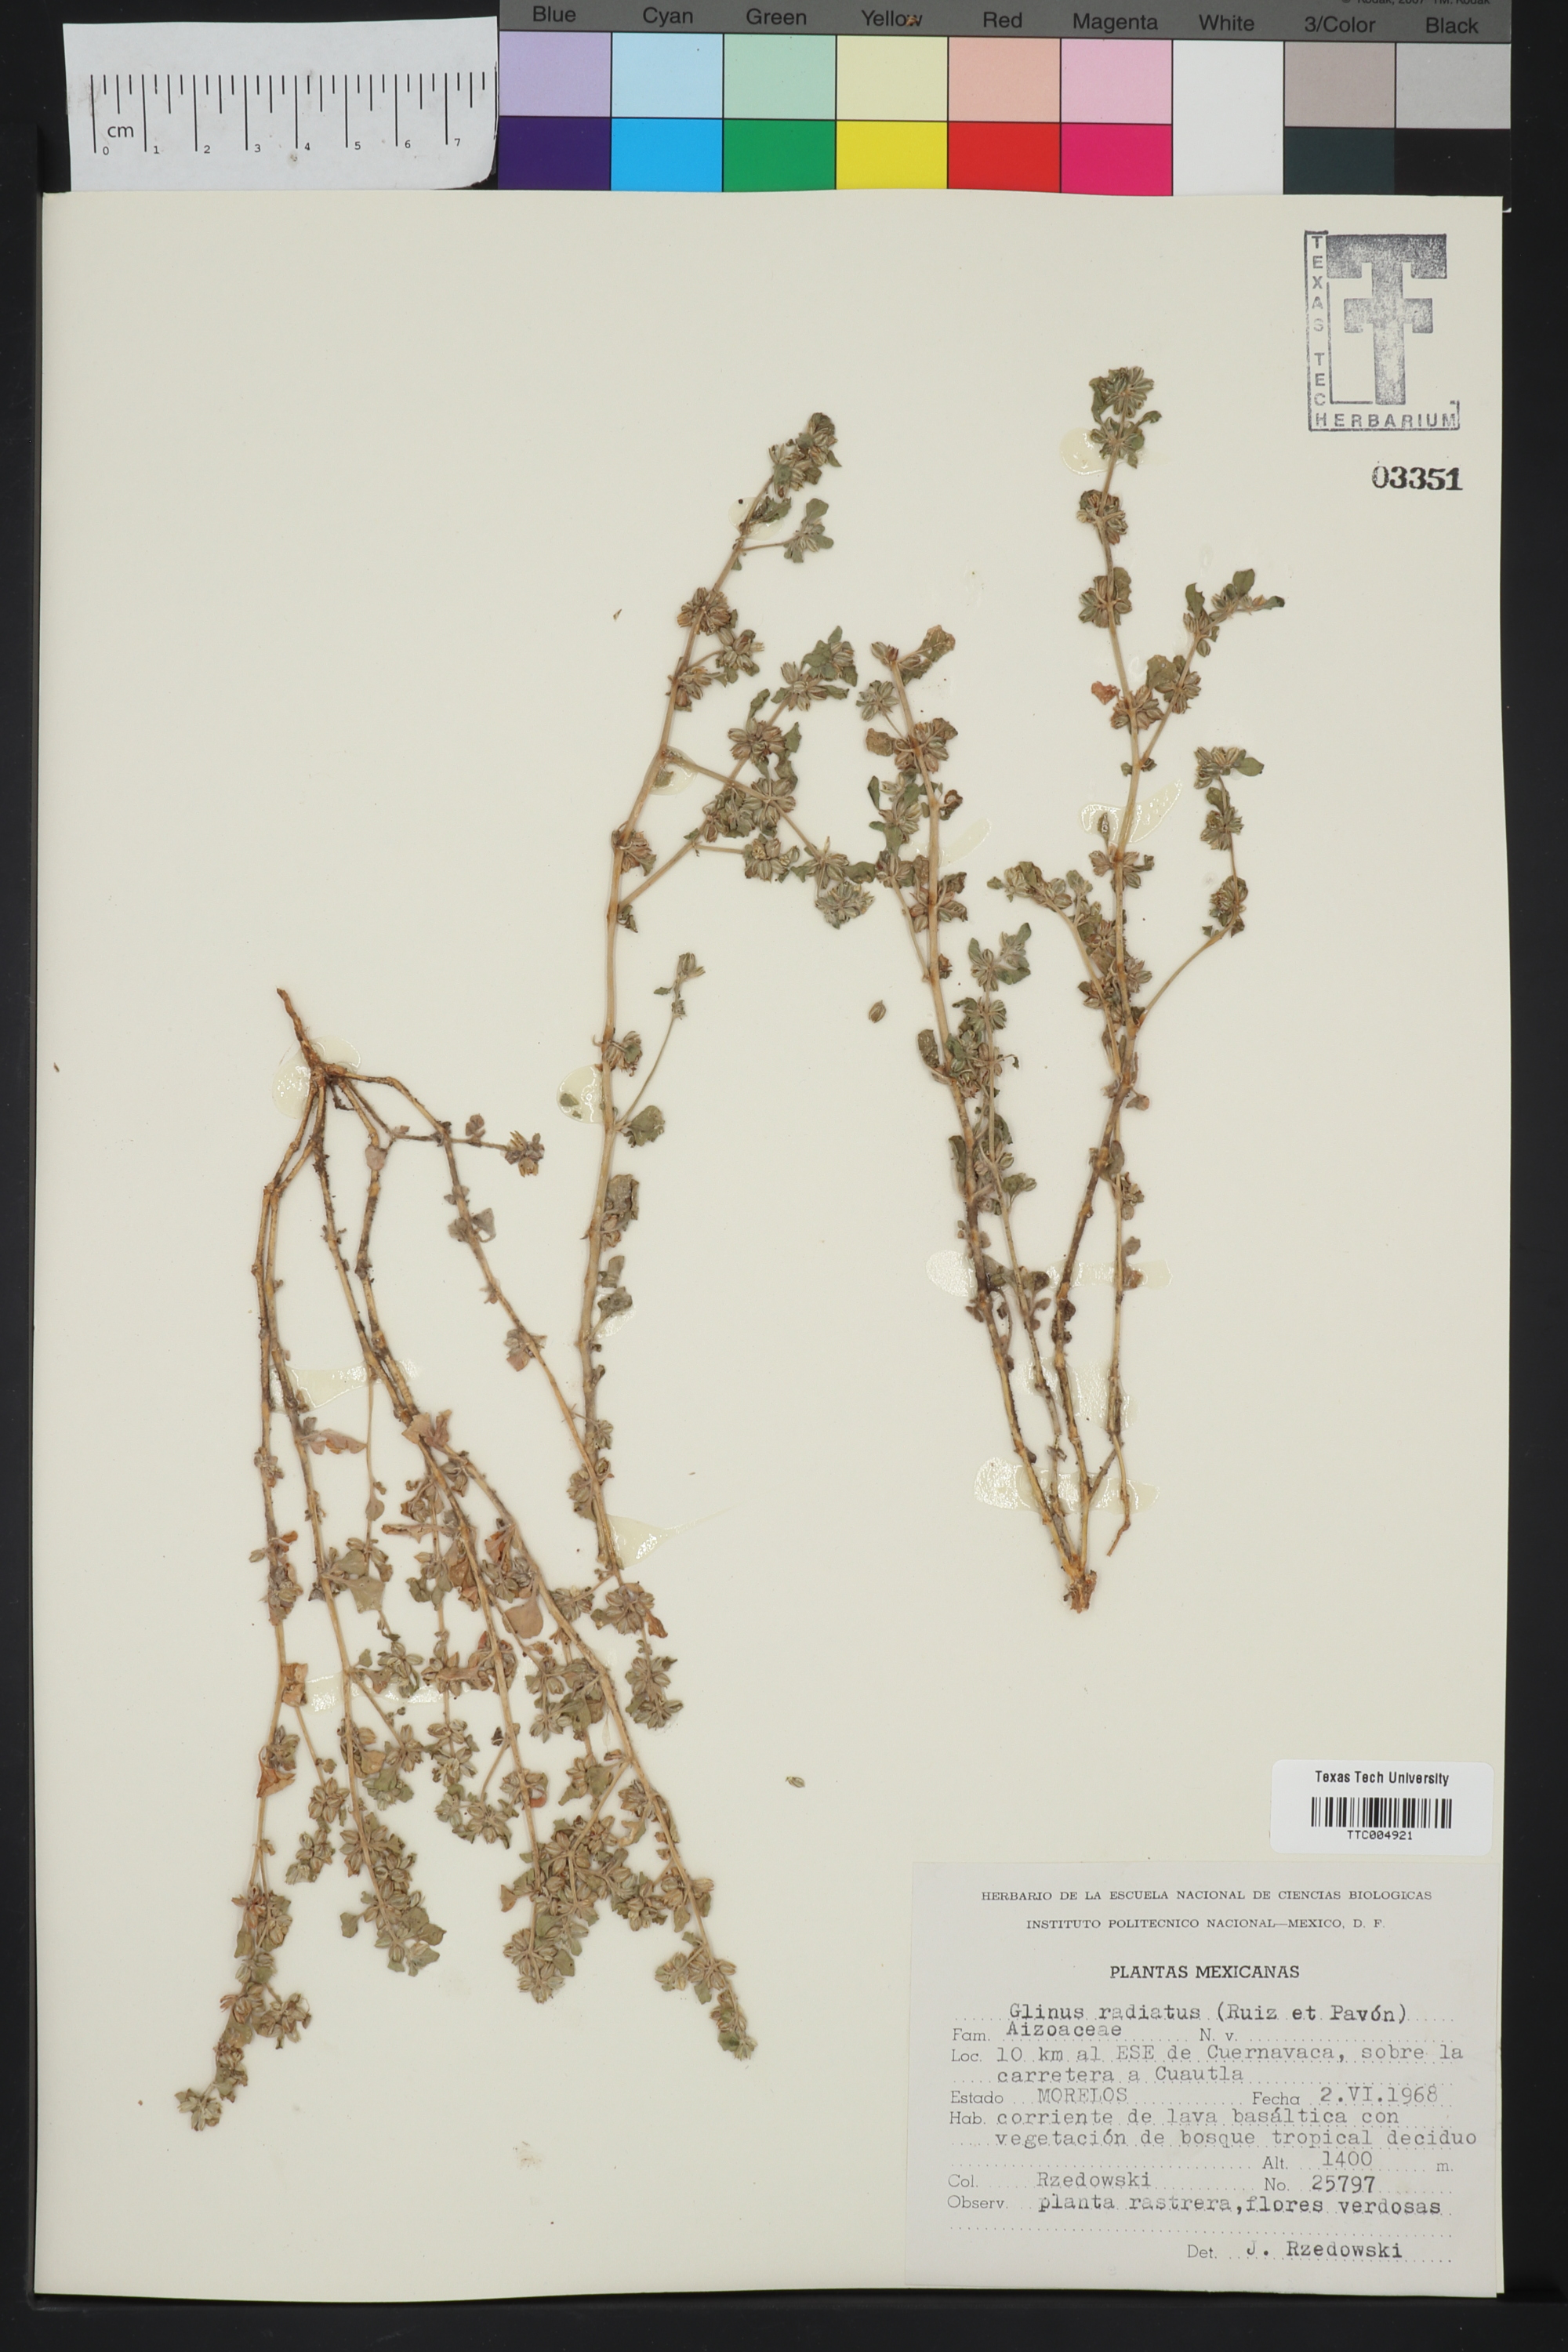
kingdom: Plantae
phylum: Tracheophyta
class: Magnoliopsida
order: Caryophyllales
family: Molluginaceae
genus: Glinus
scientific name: Glinus radiatus
